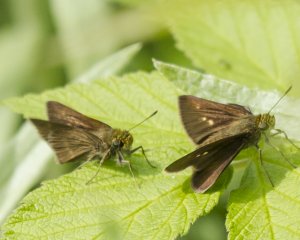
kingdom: Animalia
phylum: Arthropoda
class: Insecta
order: Lepidoptera
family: Hesperiidae
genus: Euphyes
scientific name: Euphyes vestris
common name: Dun Skipper
